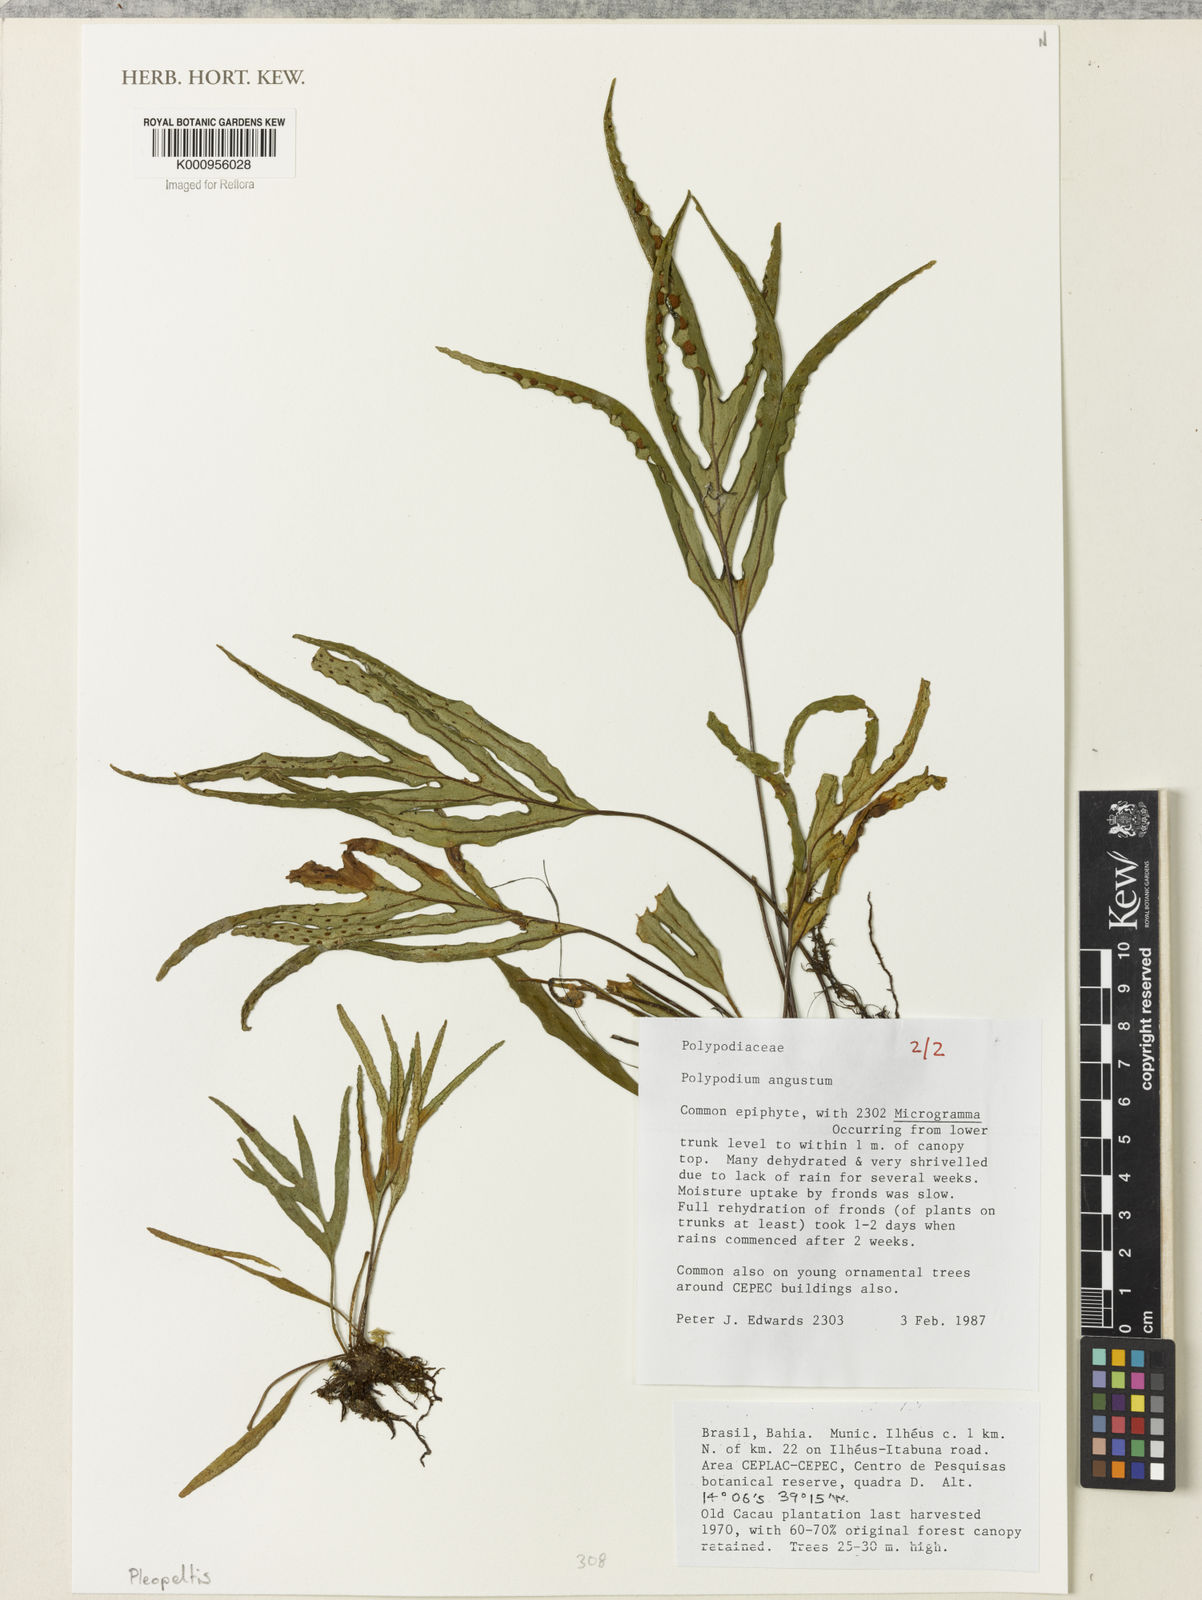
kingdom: Plantae
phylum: Tracheophyta
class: Polypodiopsida
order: Polypodiales
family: Polypodiaceae
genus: Pleopeltis
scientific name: Pleopeltis angusta
